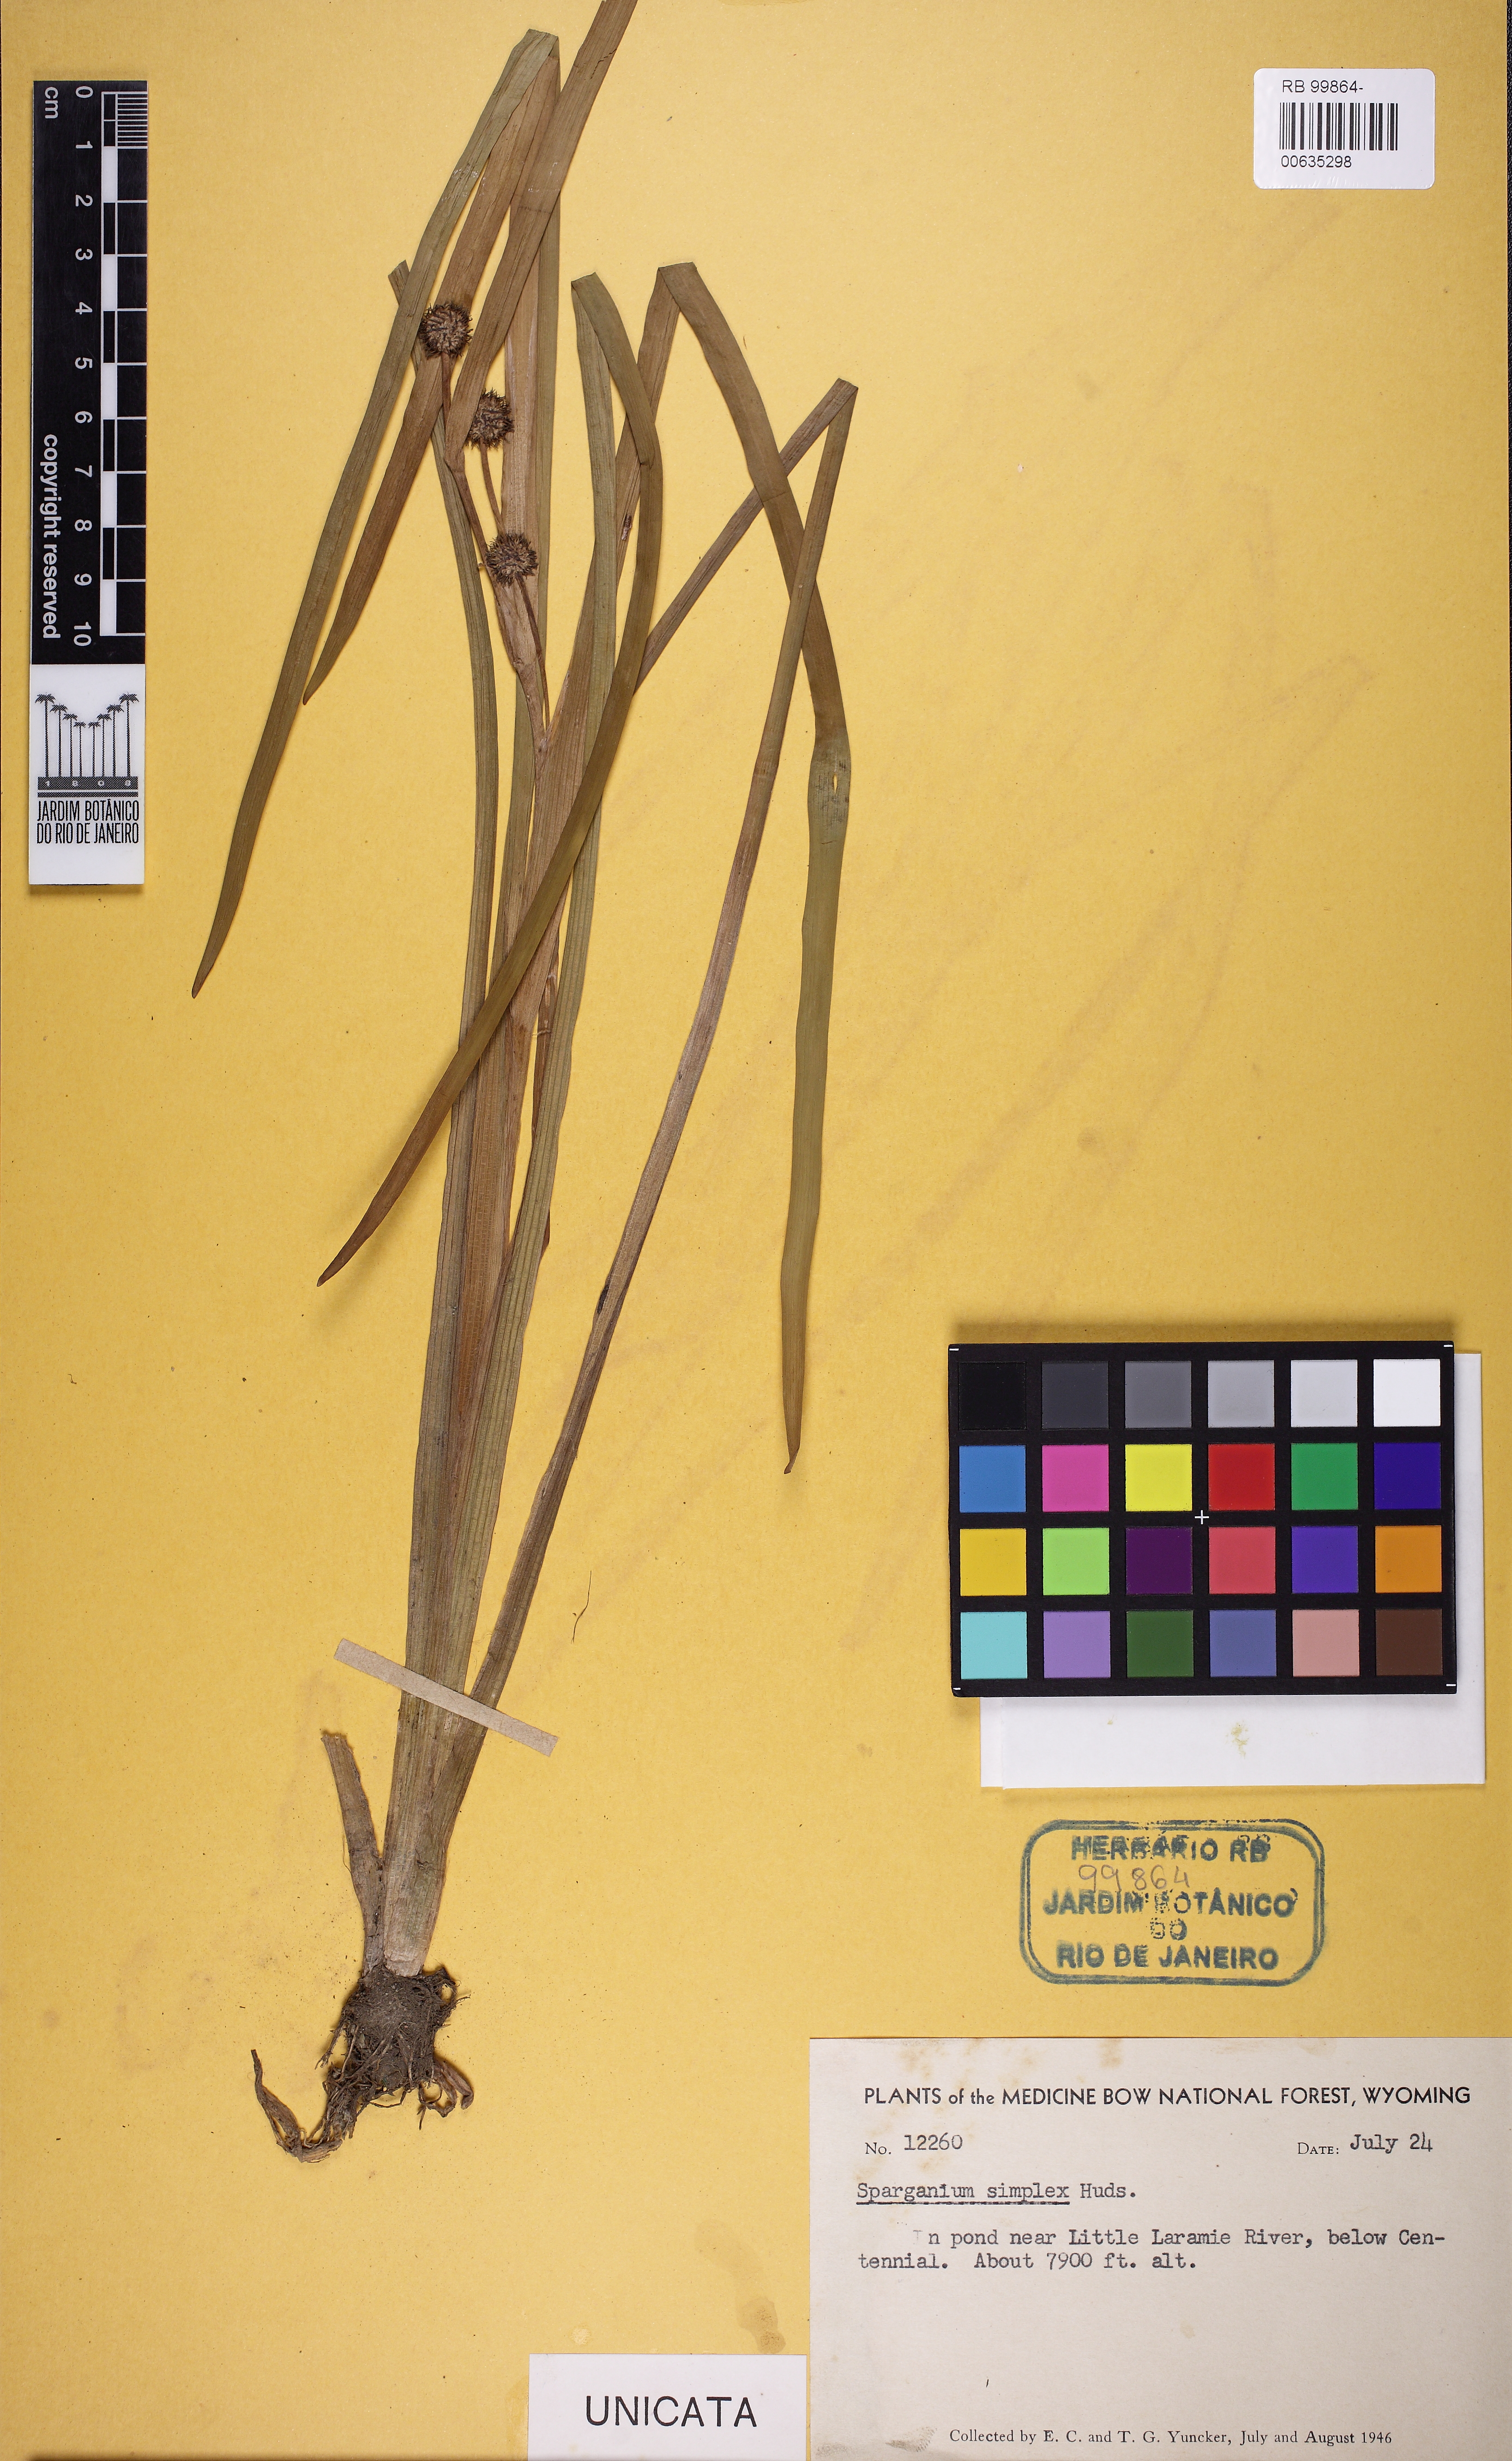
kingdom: Plantae
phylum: Tracheophyta
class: Liliopsida
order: Poales
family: Typhaceae
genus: Sparganium
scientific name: Sparganium angustifolium
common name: Floating bur-reed
